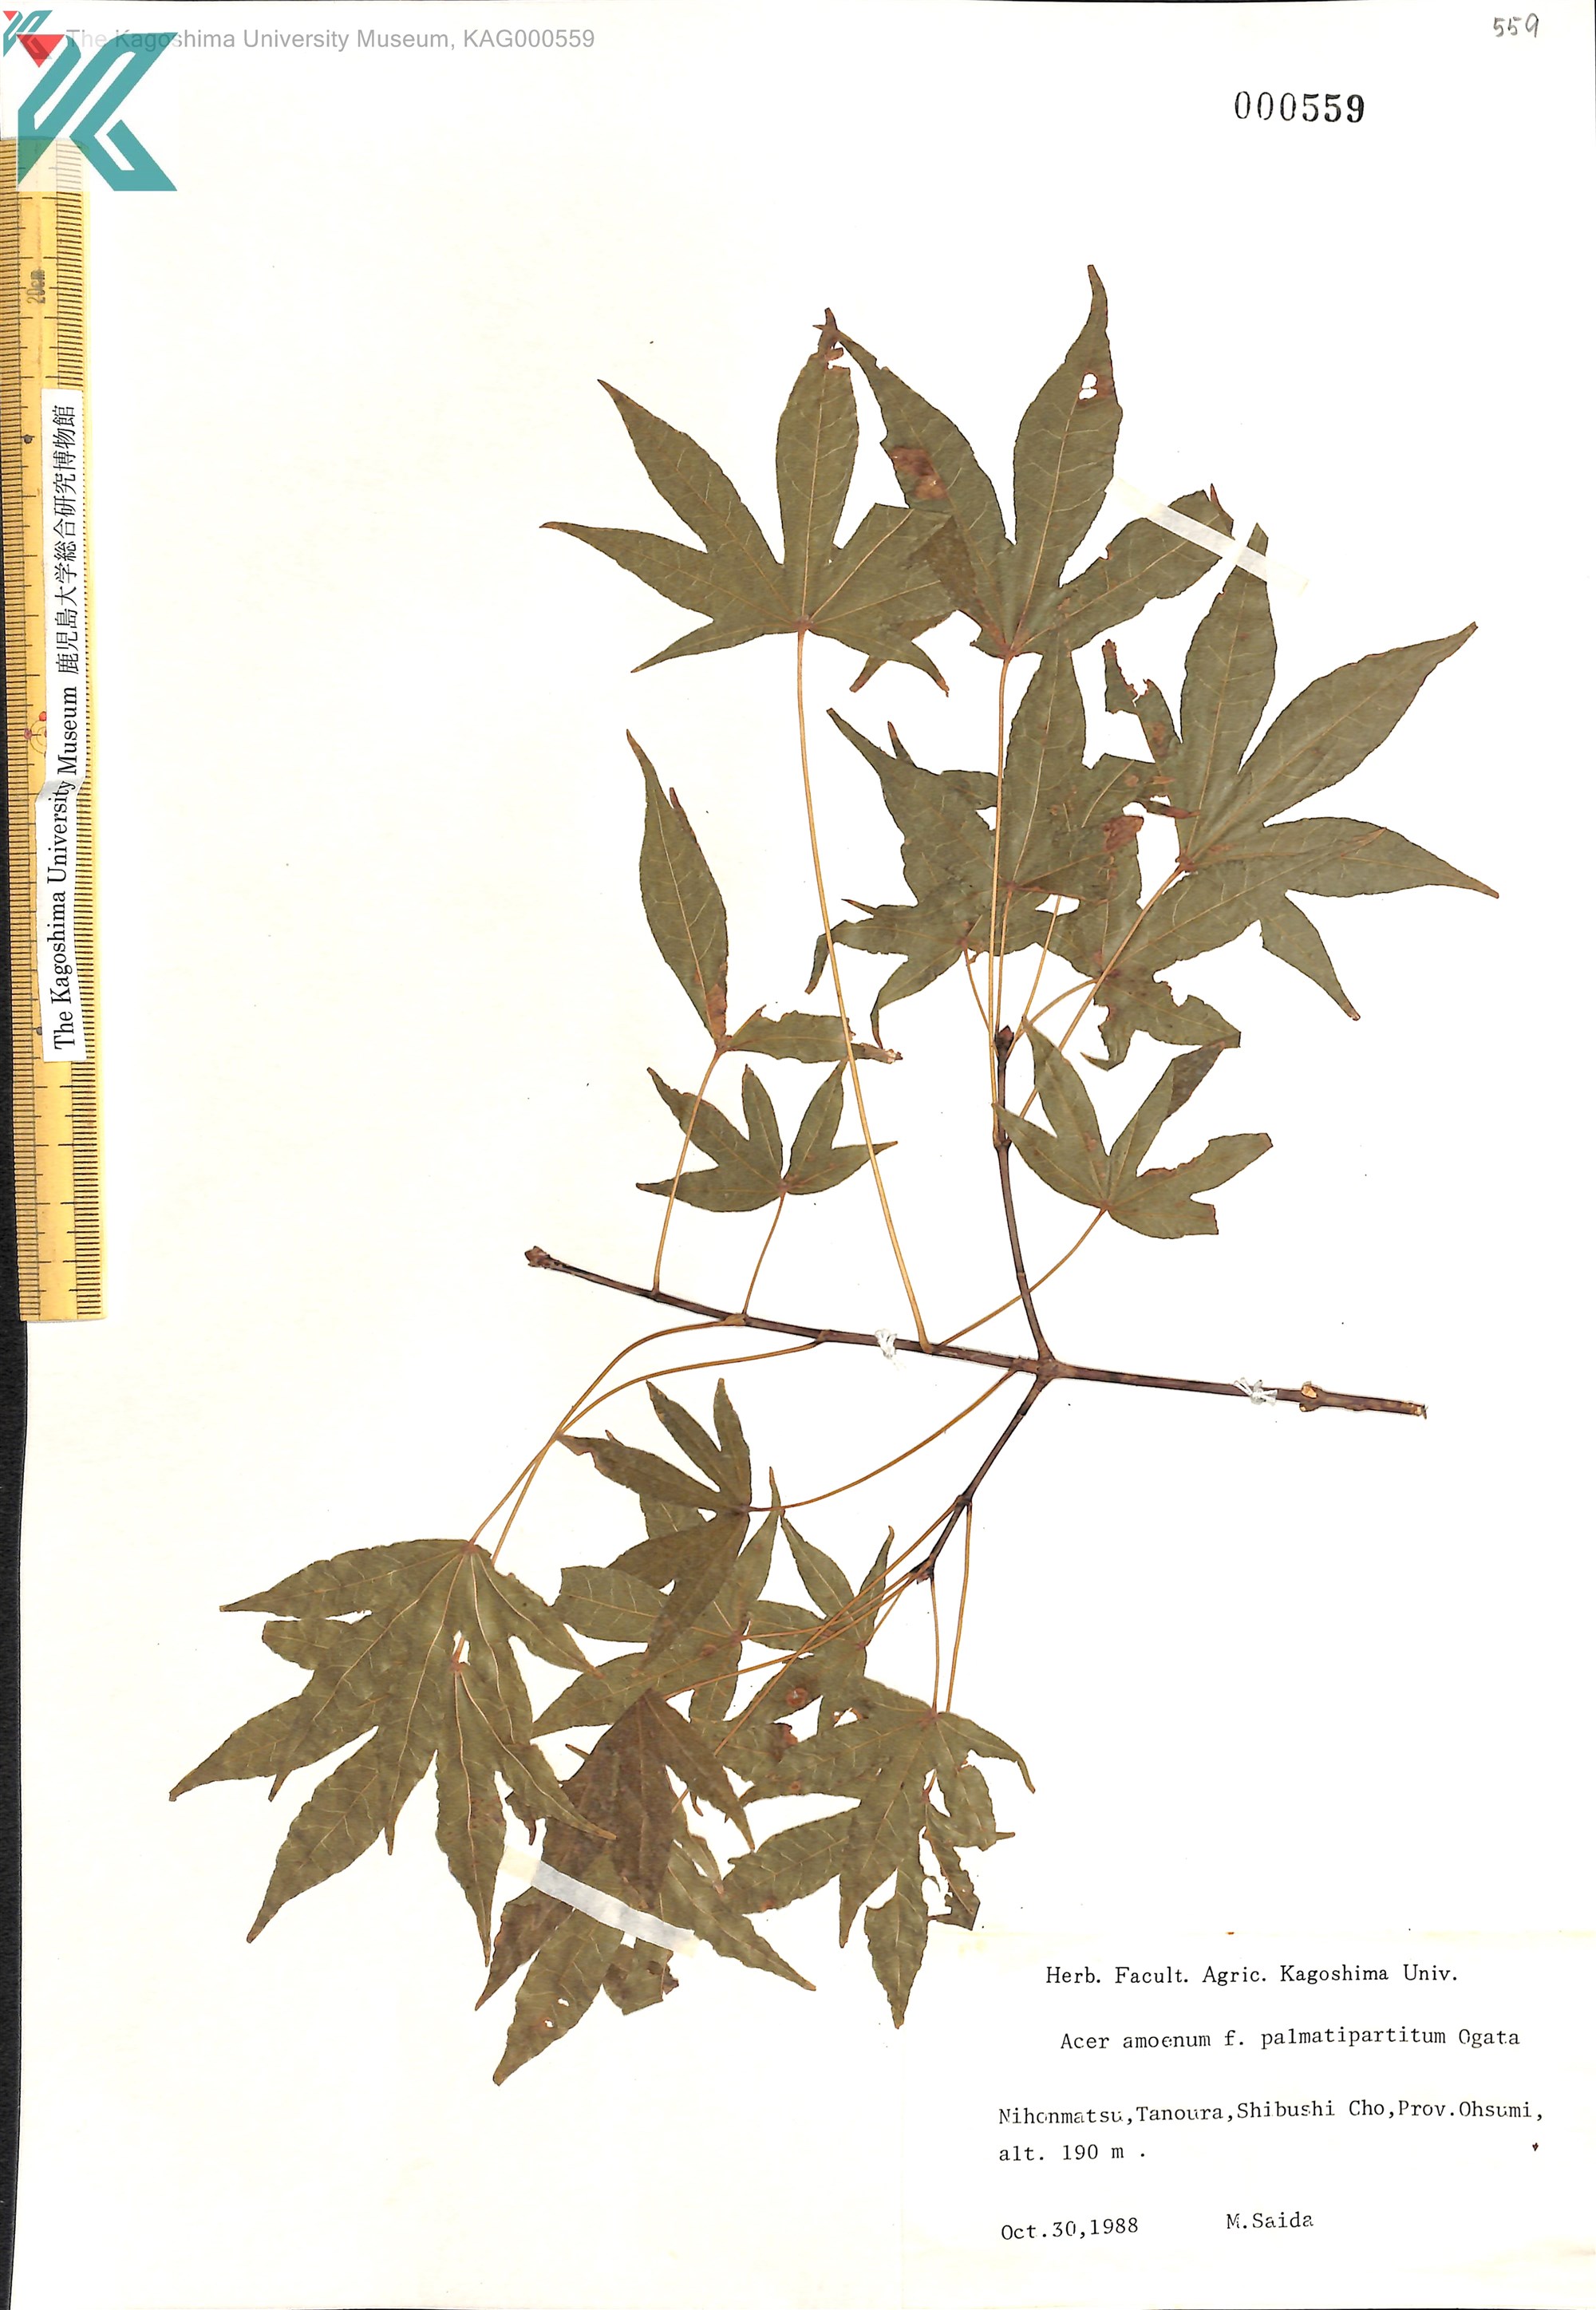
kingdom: Plantae
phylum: Tracheophyta
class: Magnoliopsida
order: Sapindales
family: Sapindaceae
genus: Acer
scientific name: Acer palmatum
